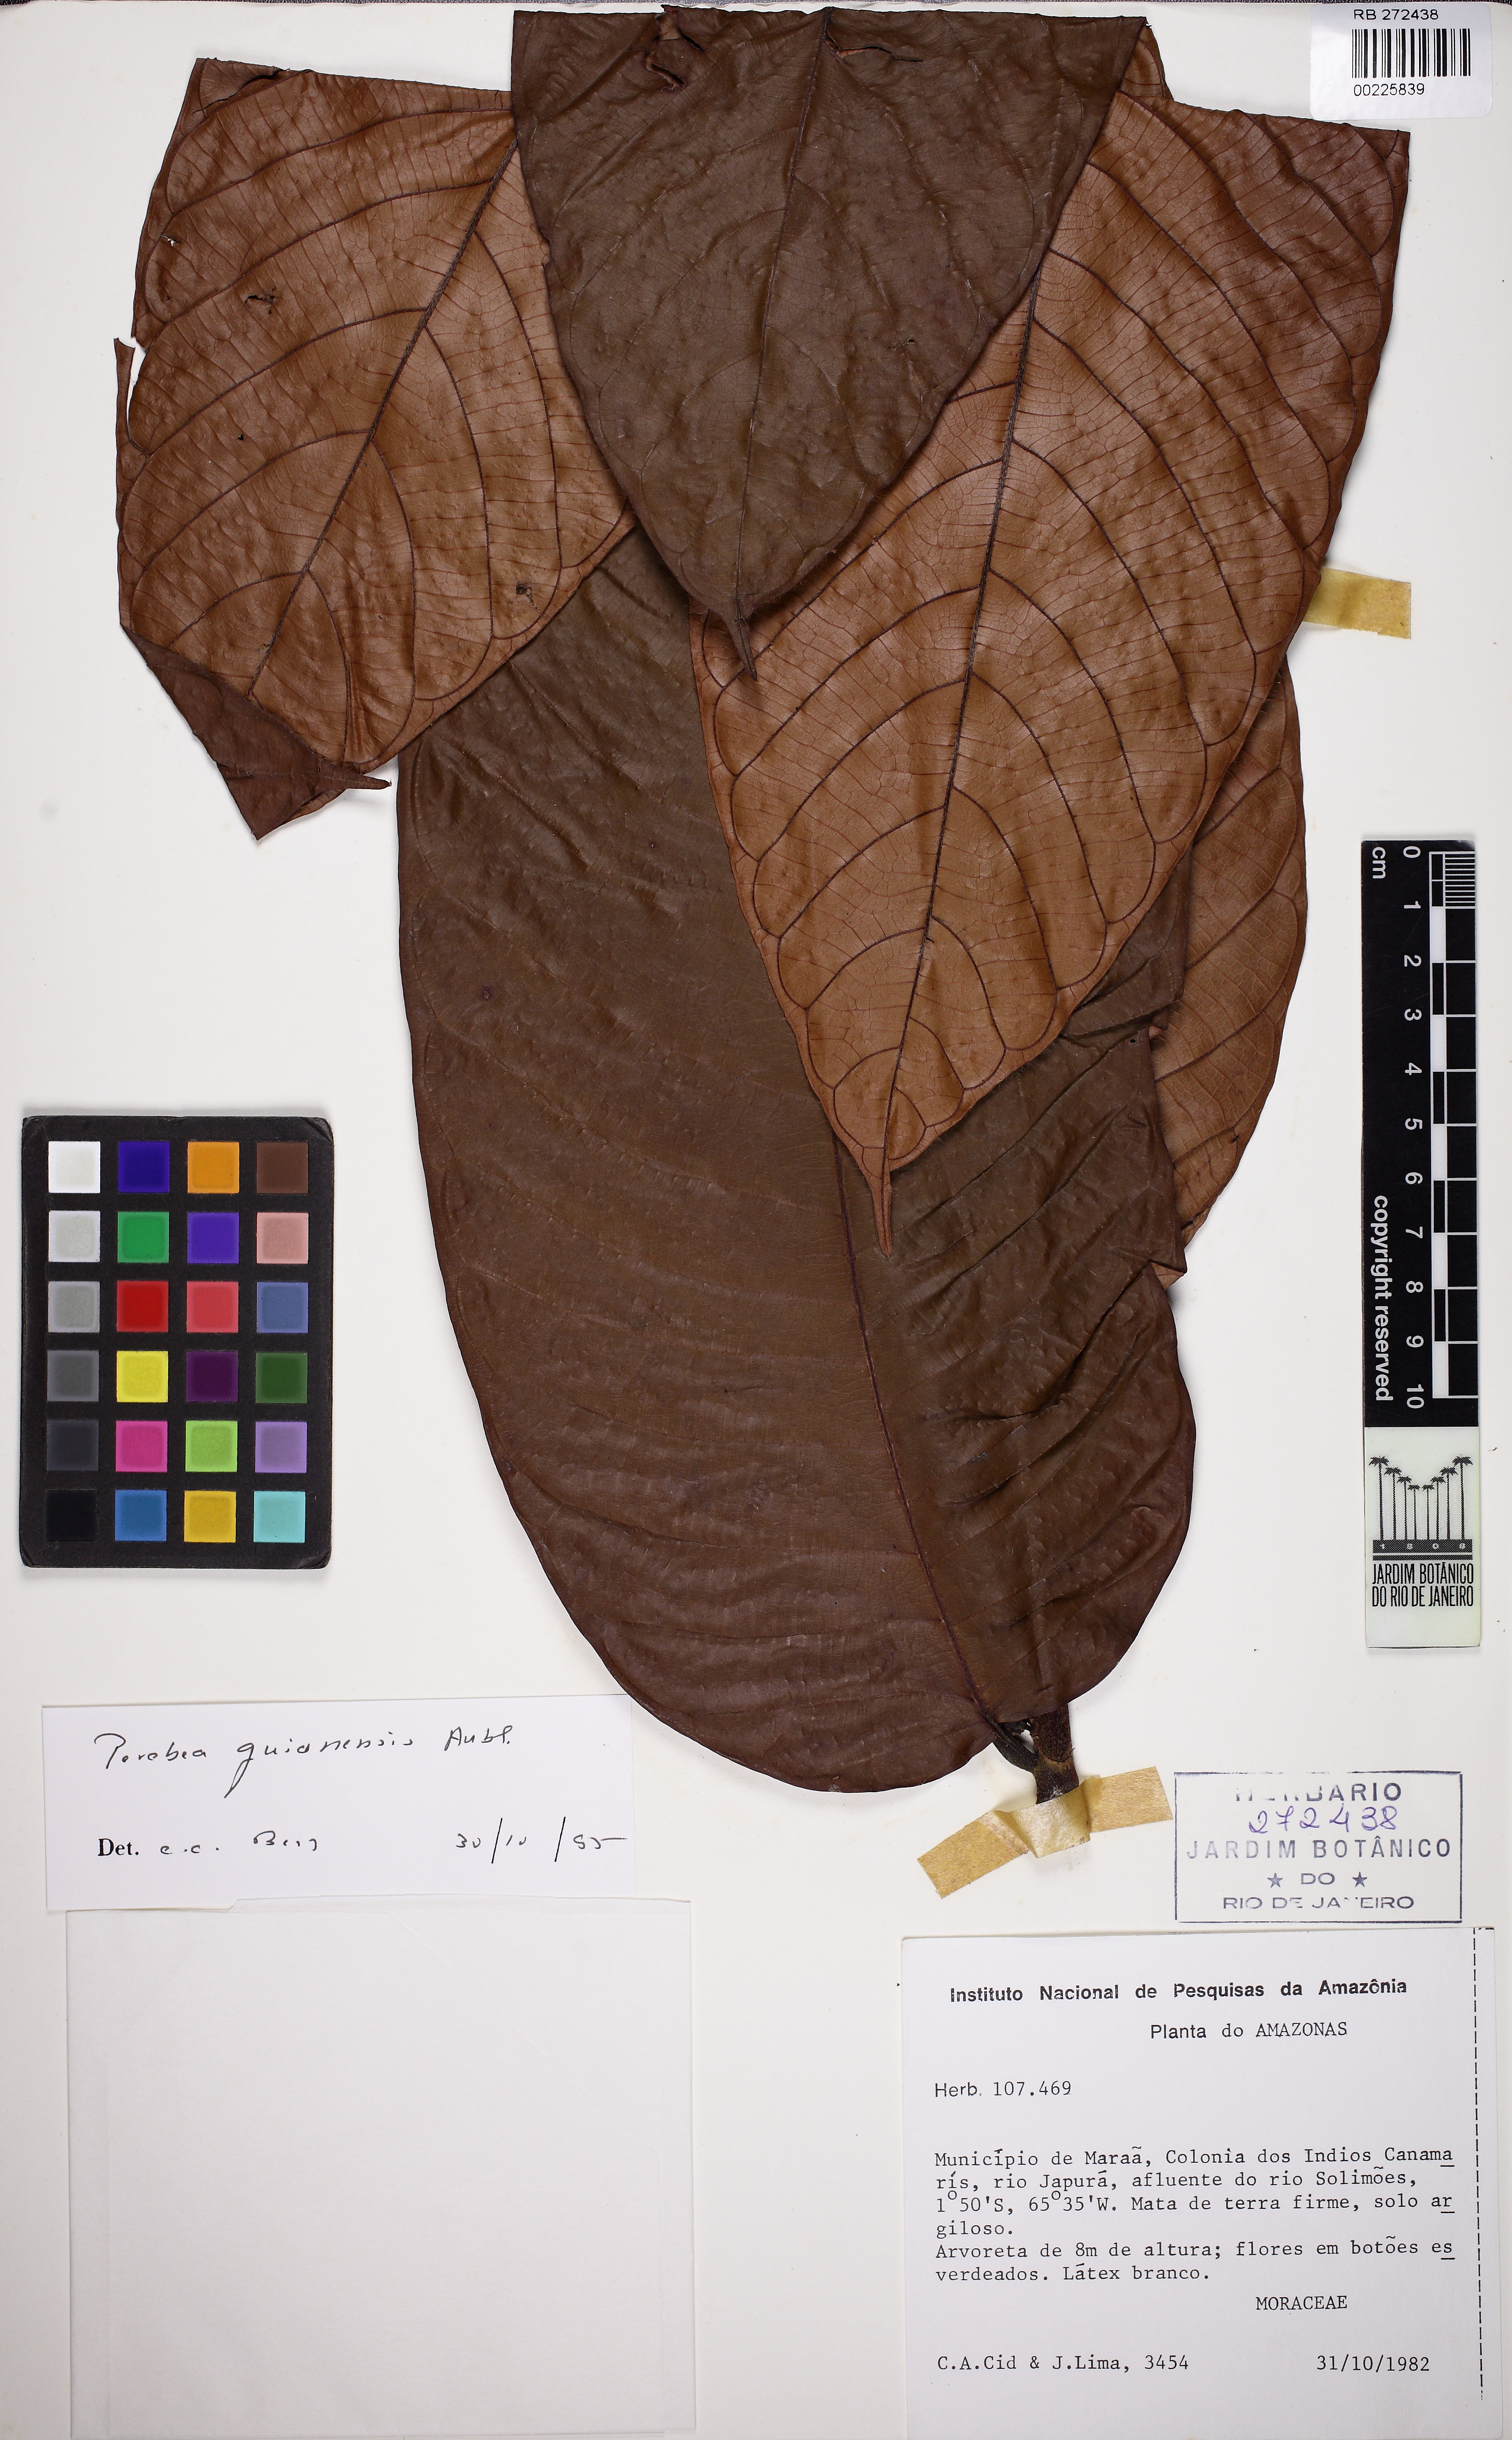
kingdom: Plantae
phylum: Tracheophyta
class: Magnoliopsida
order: Rosales
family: Moraceae
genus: Perebea
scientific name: Perebea guianensis
